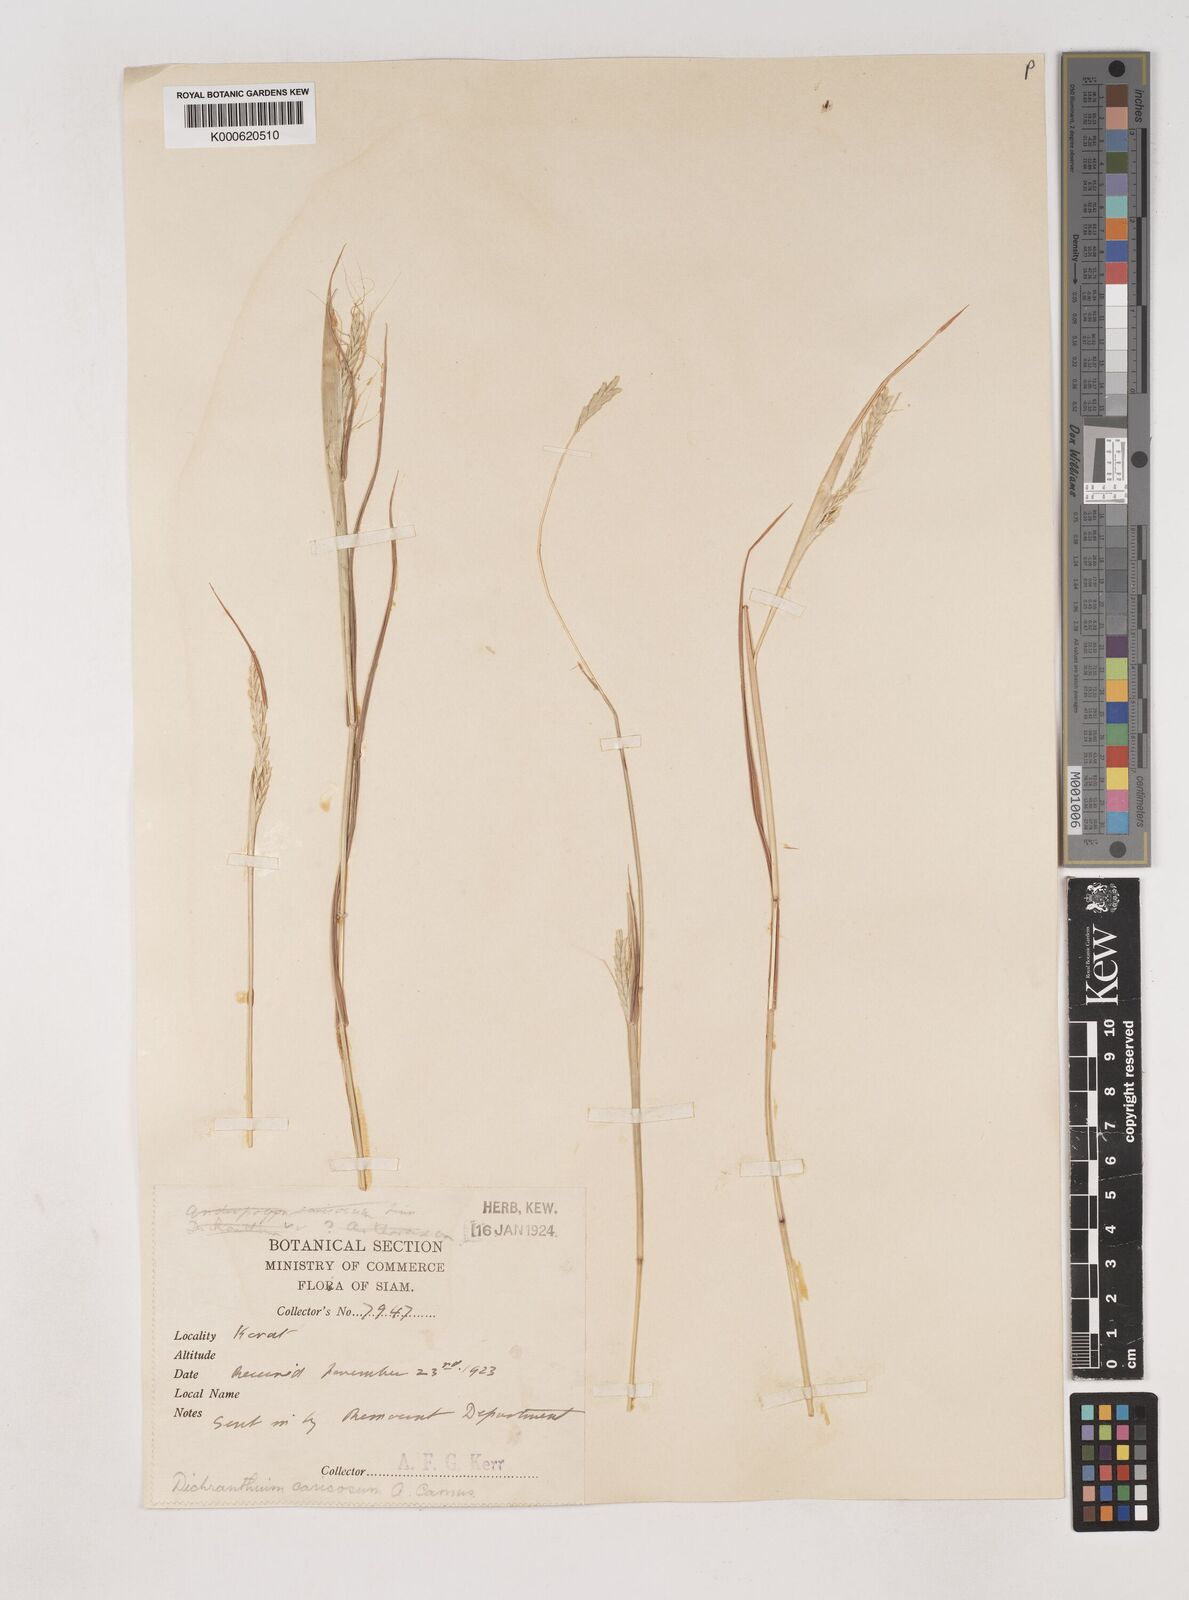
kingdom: Plantae
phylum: Tracheophyta
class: Liliopsida
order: Poales
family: Poaceae
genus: Dichanthium
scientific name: Dichanthium caricosum
